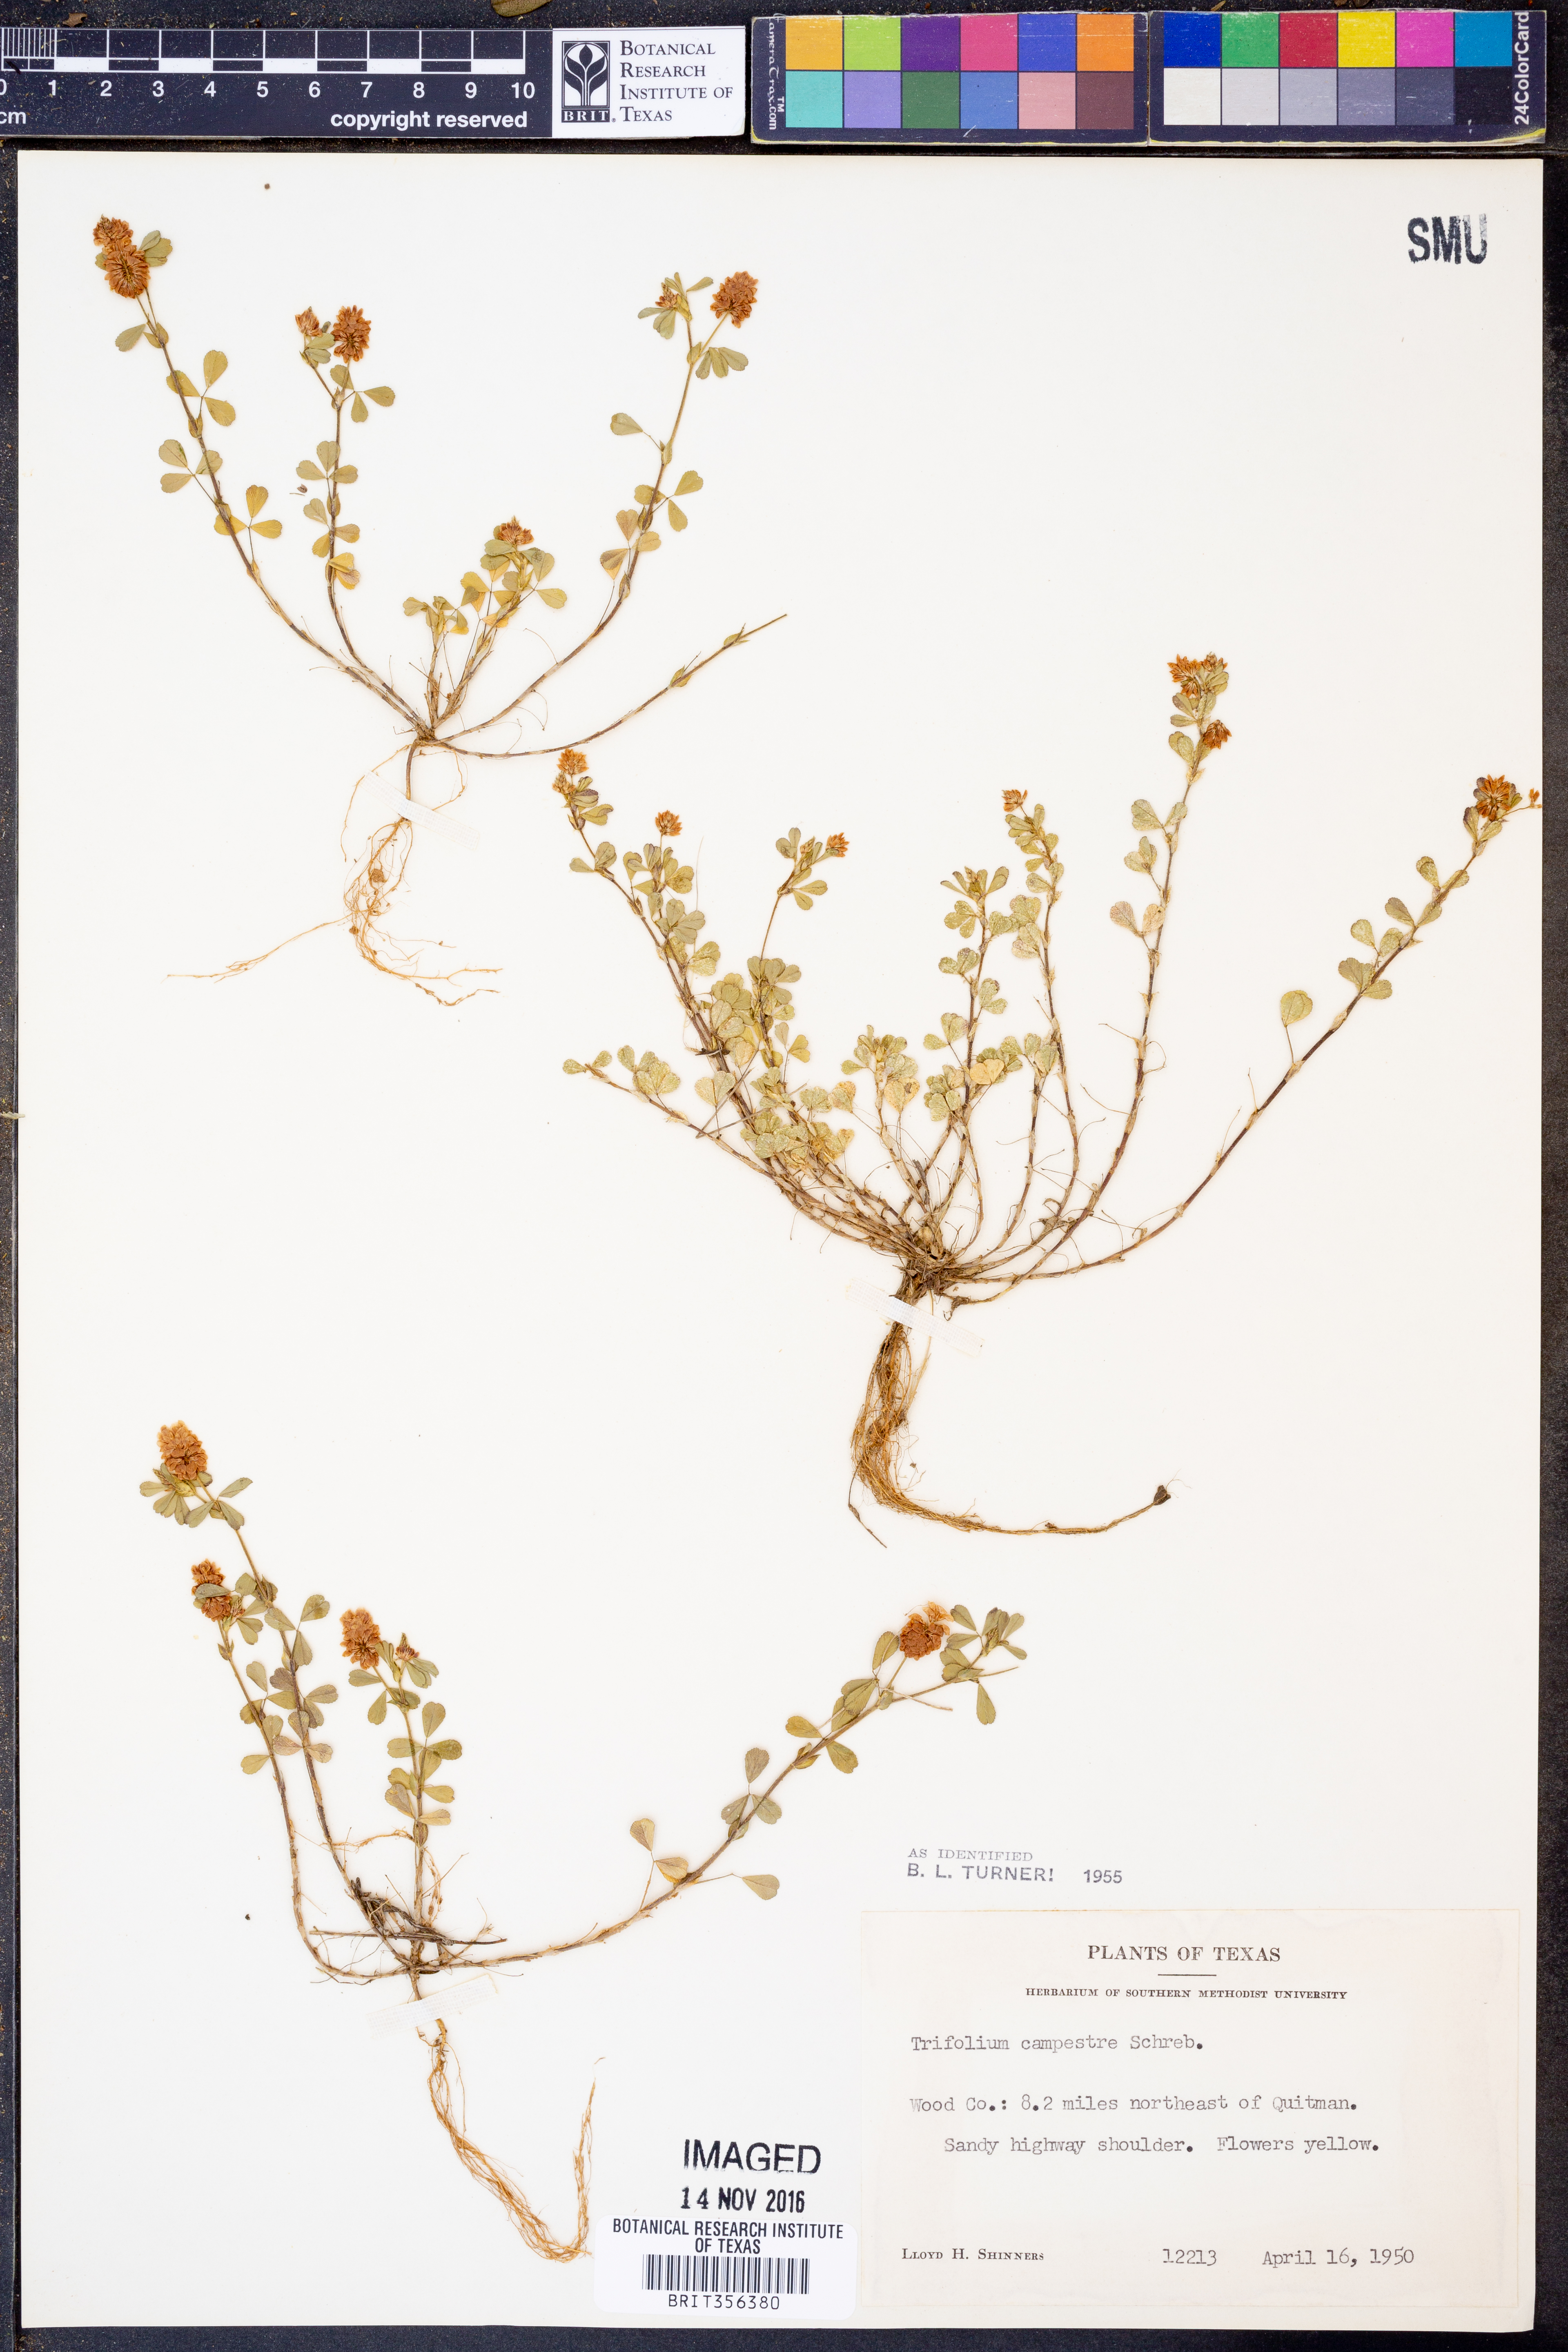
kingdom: Plantae
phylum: Tracheophyta
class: Magnoliopsida
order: Fabales
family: Fabaceae
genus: Trifolium
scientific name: Trifolium campestre
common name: Field clover
